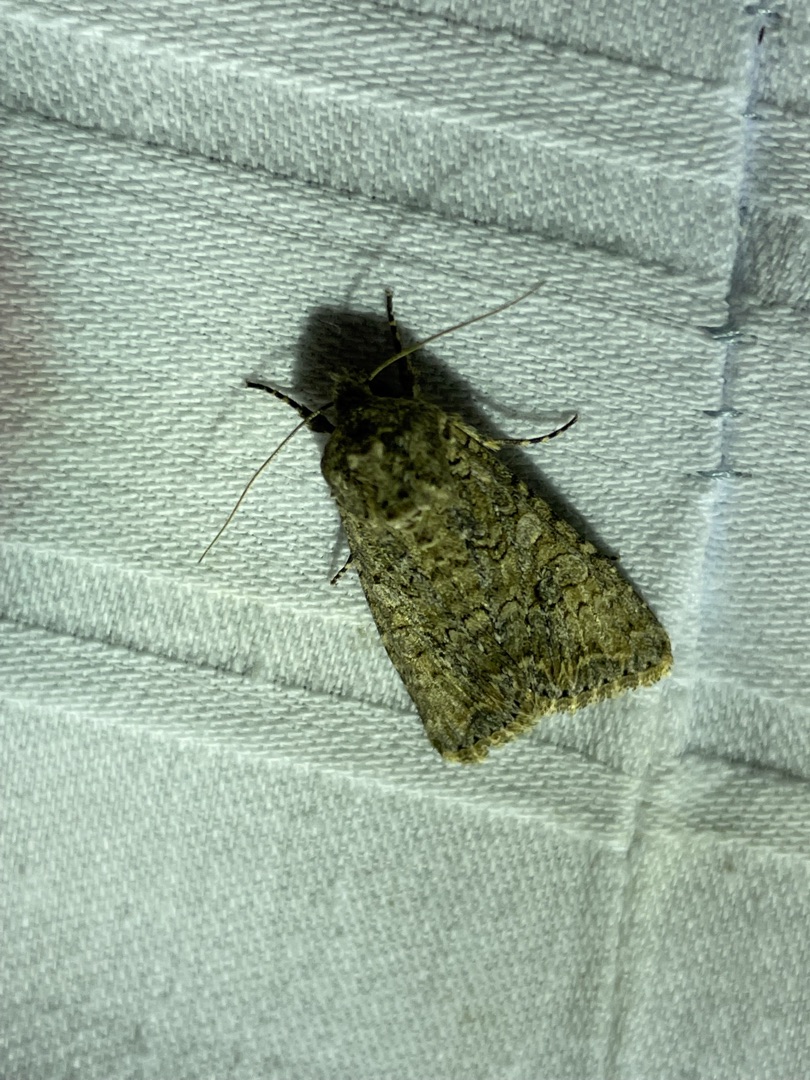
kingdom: Animalia
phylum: Arthropoda
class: Insecta
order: Lepidoptera
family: Noctuidae
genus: Anarta
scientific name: Anarta trifolii
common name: Bedeugle
